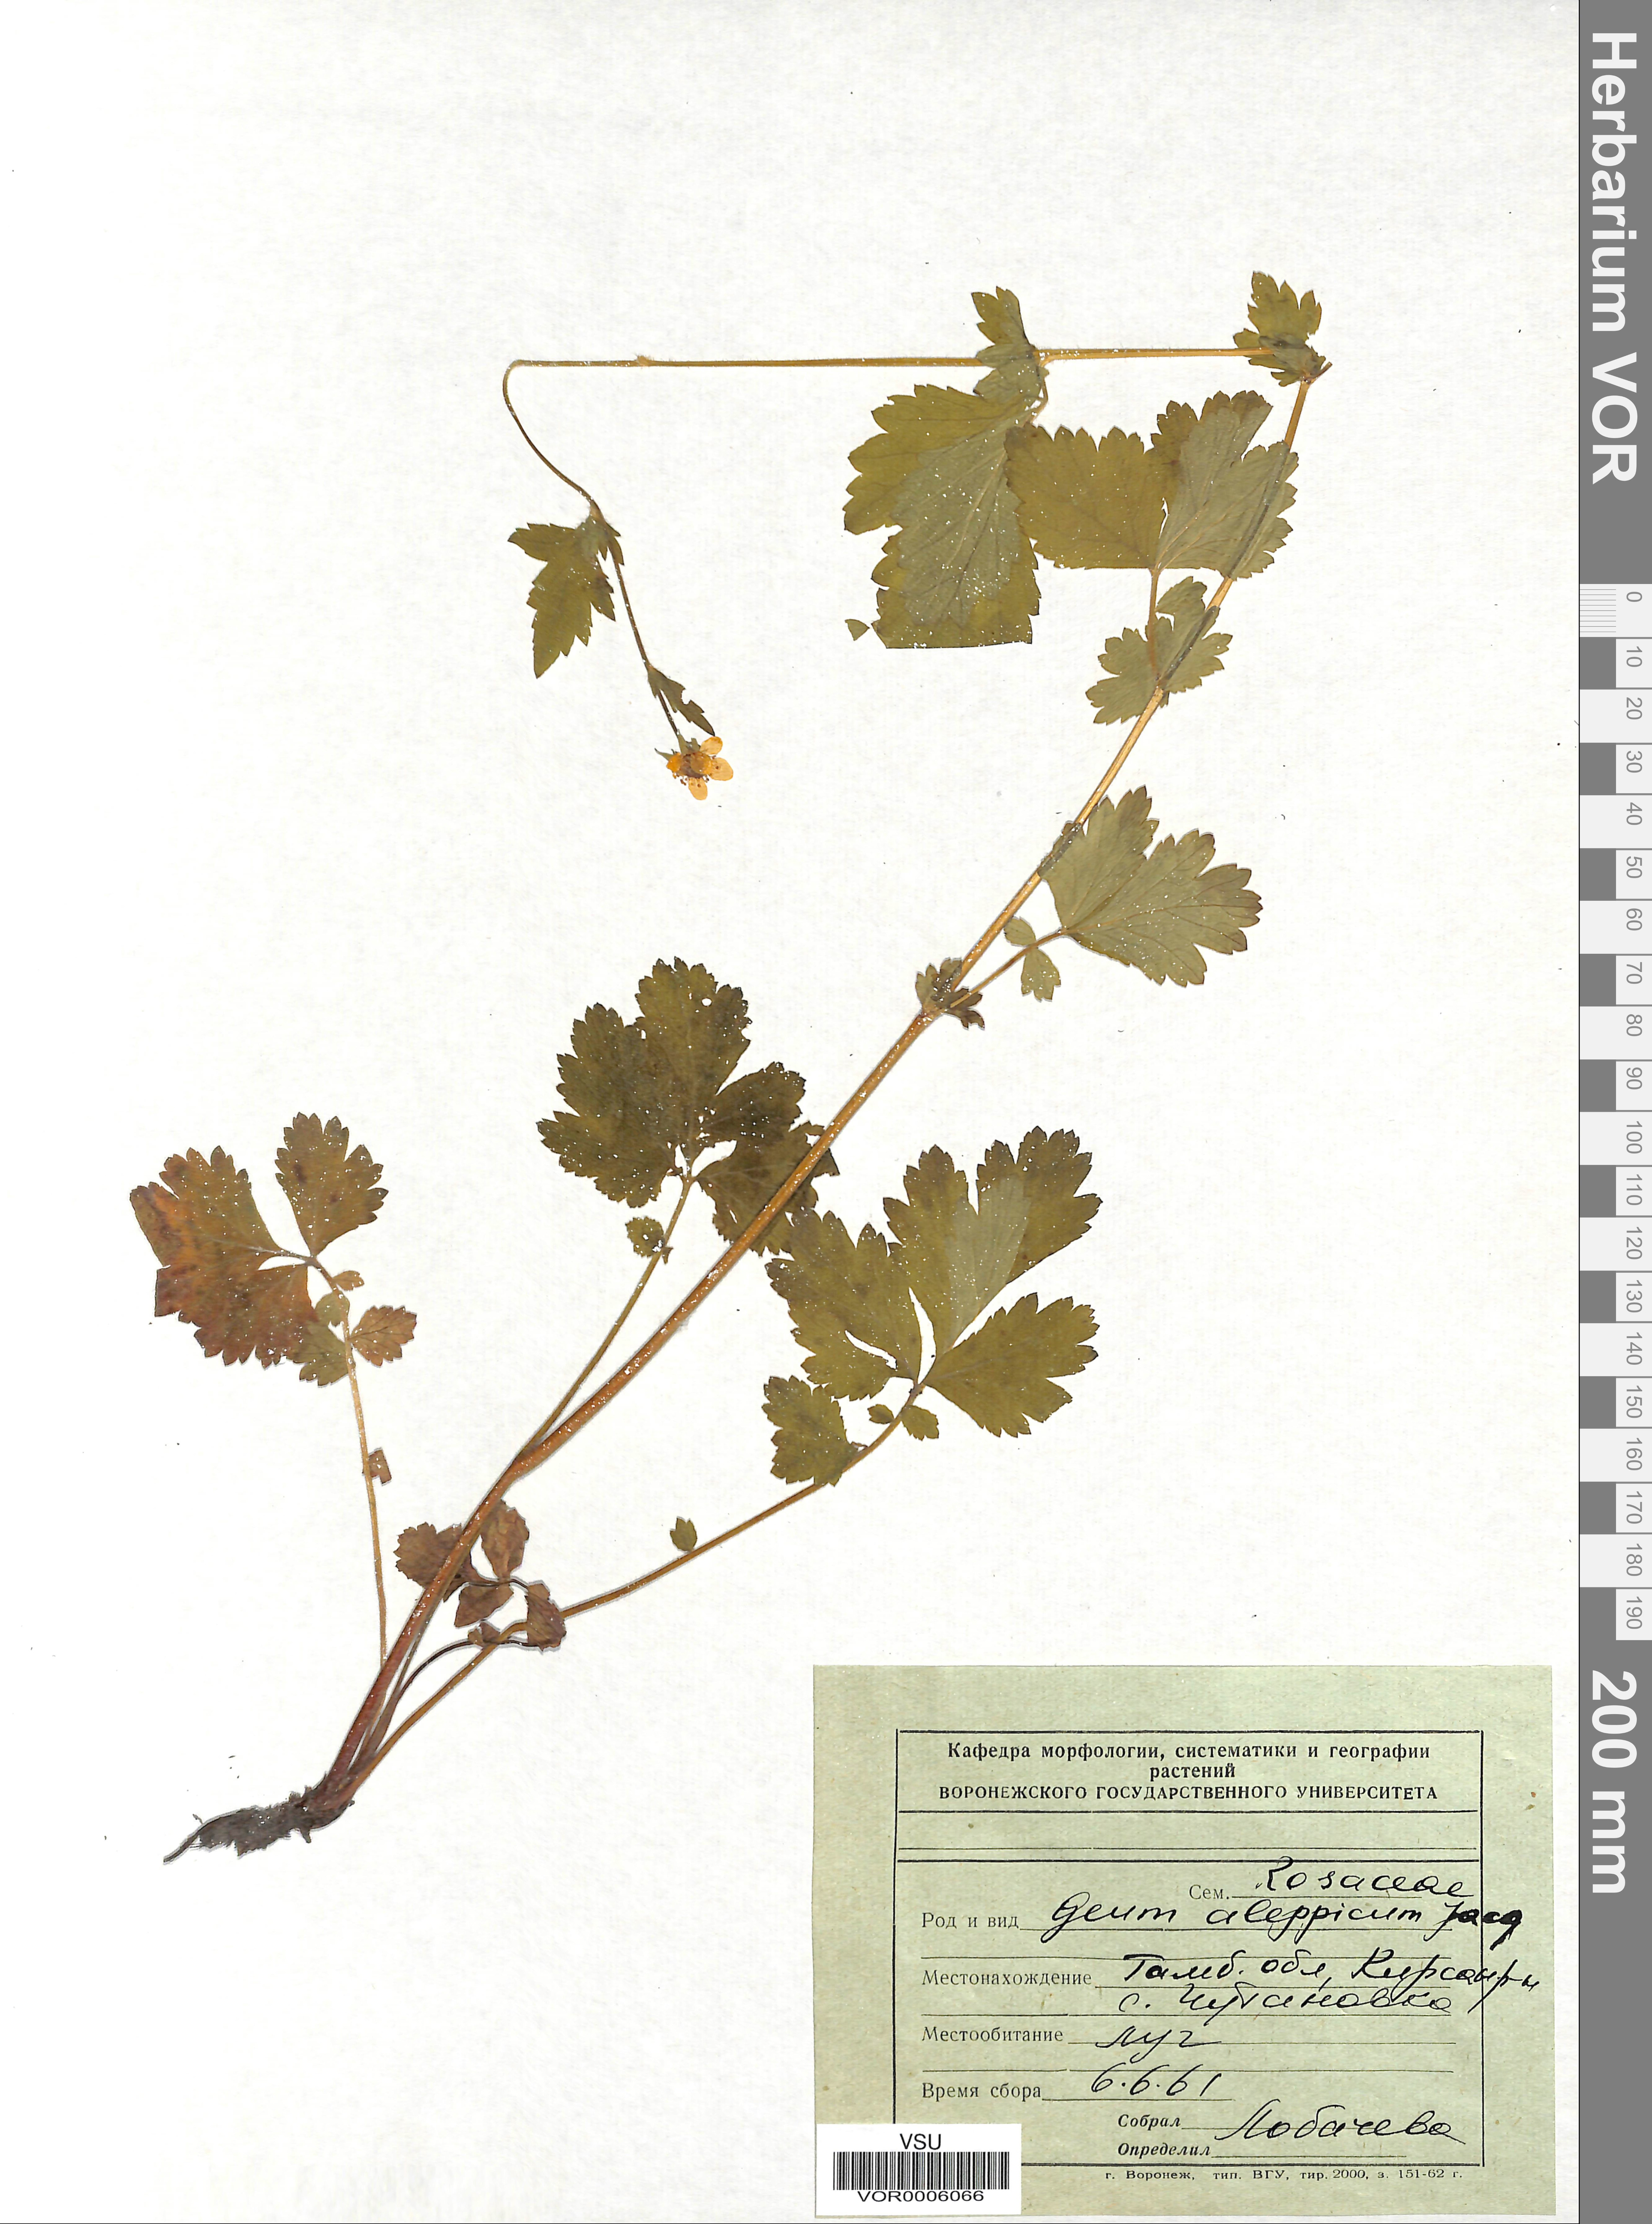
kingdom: Plantae
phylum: Tracheophyta
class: Magnoliopsida
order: Rosales
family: Rosaceae
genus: Geum
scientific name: Geum aleppicum
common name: Yellow avens
